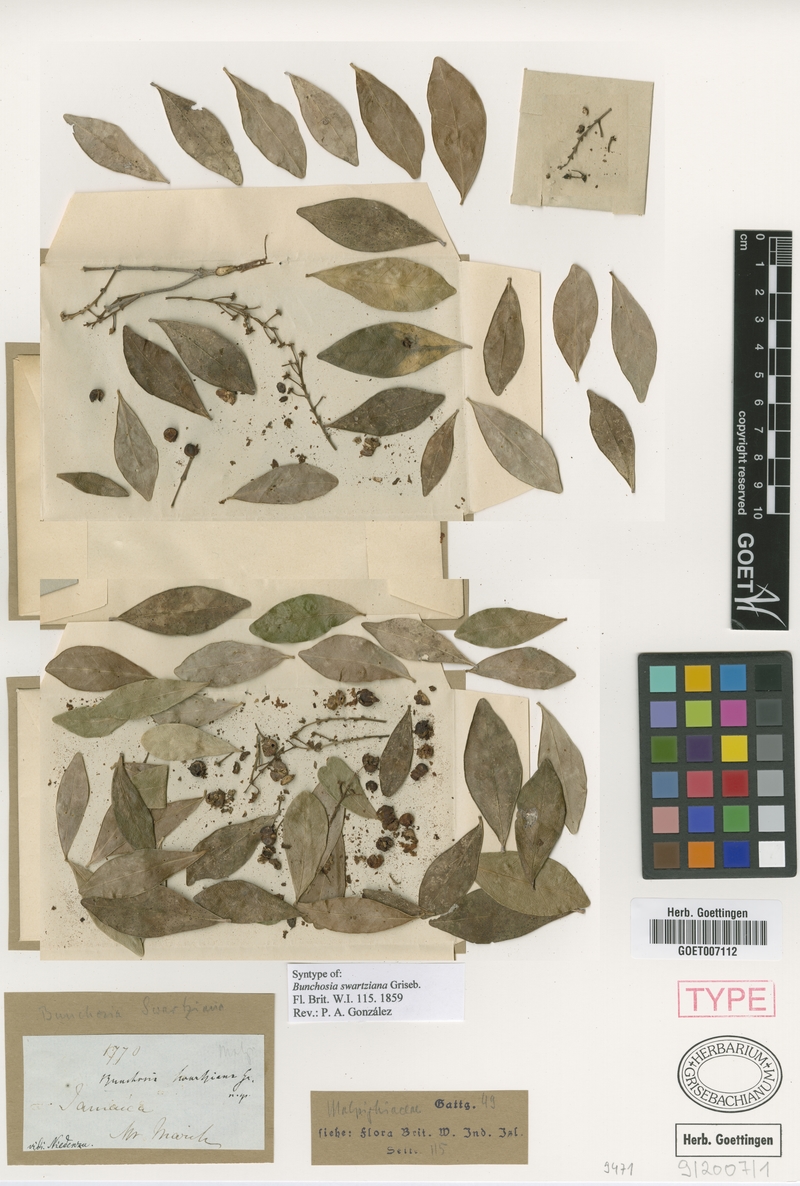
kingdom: Plantae
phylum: Tracheophyta
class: Magnoliopsida
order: Malpighiales
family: Malpighiaceae
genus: Bunchosia
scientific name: Bunchosia swartziana
